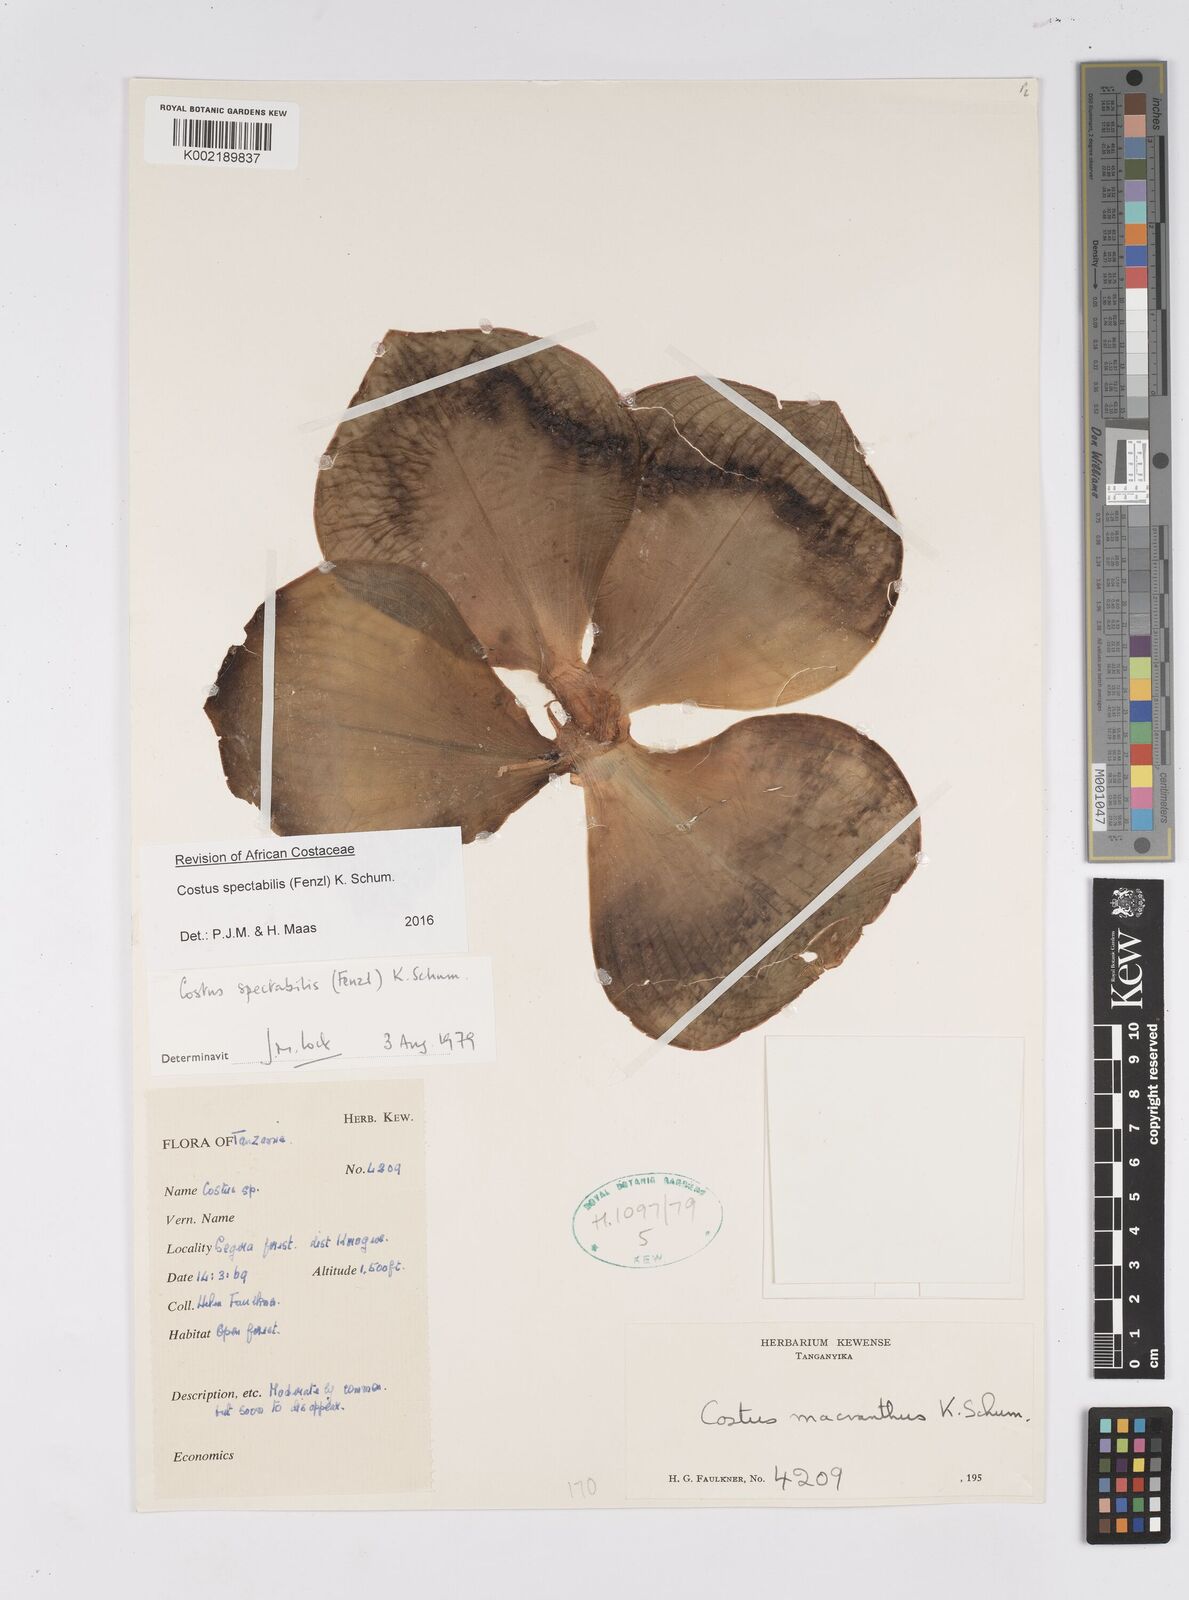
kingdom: Plantae
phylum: Tracheophyta
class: Liliopsida
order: Zingiberales
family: Costaceae
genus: Costus
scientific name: Costus spectabilis
